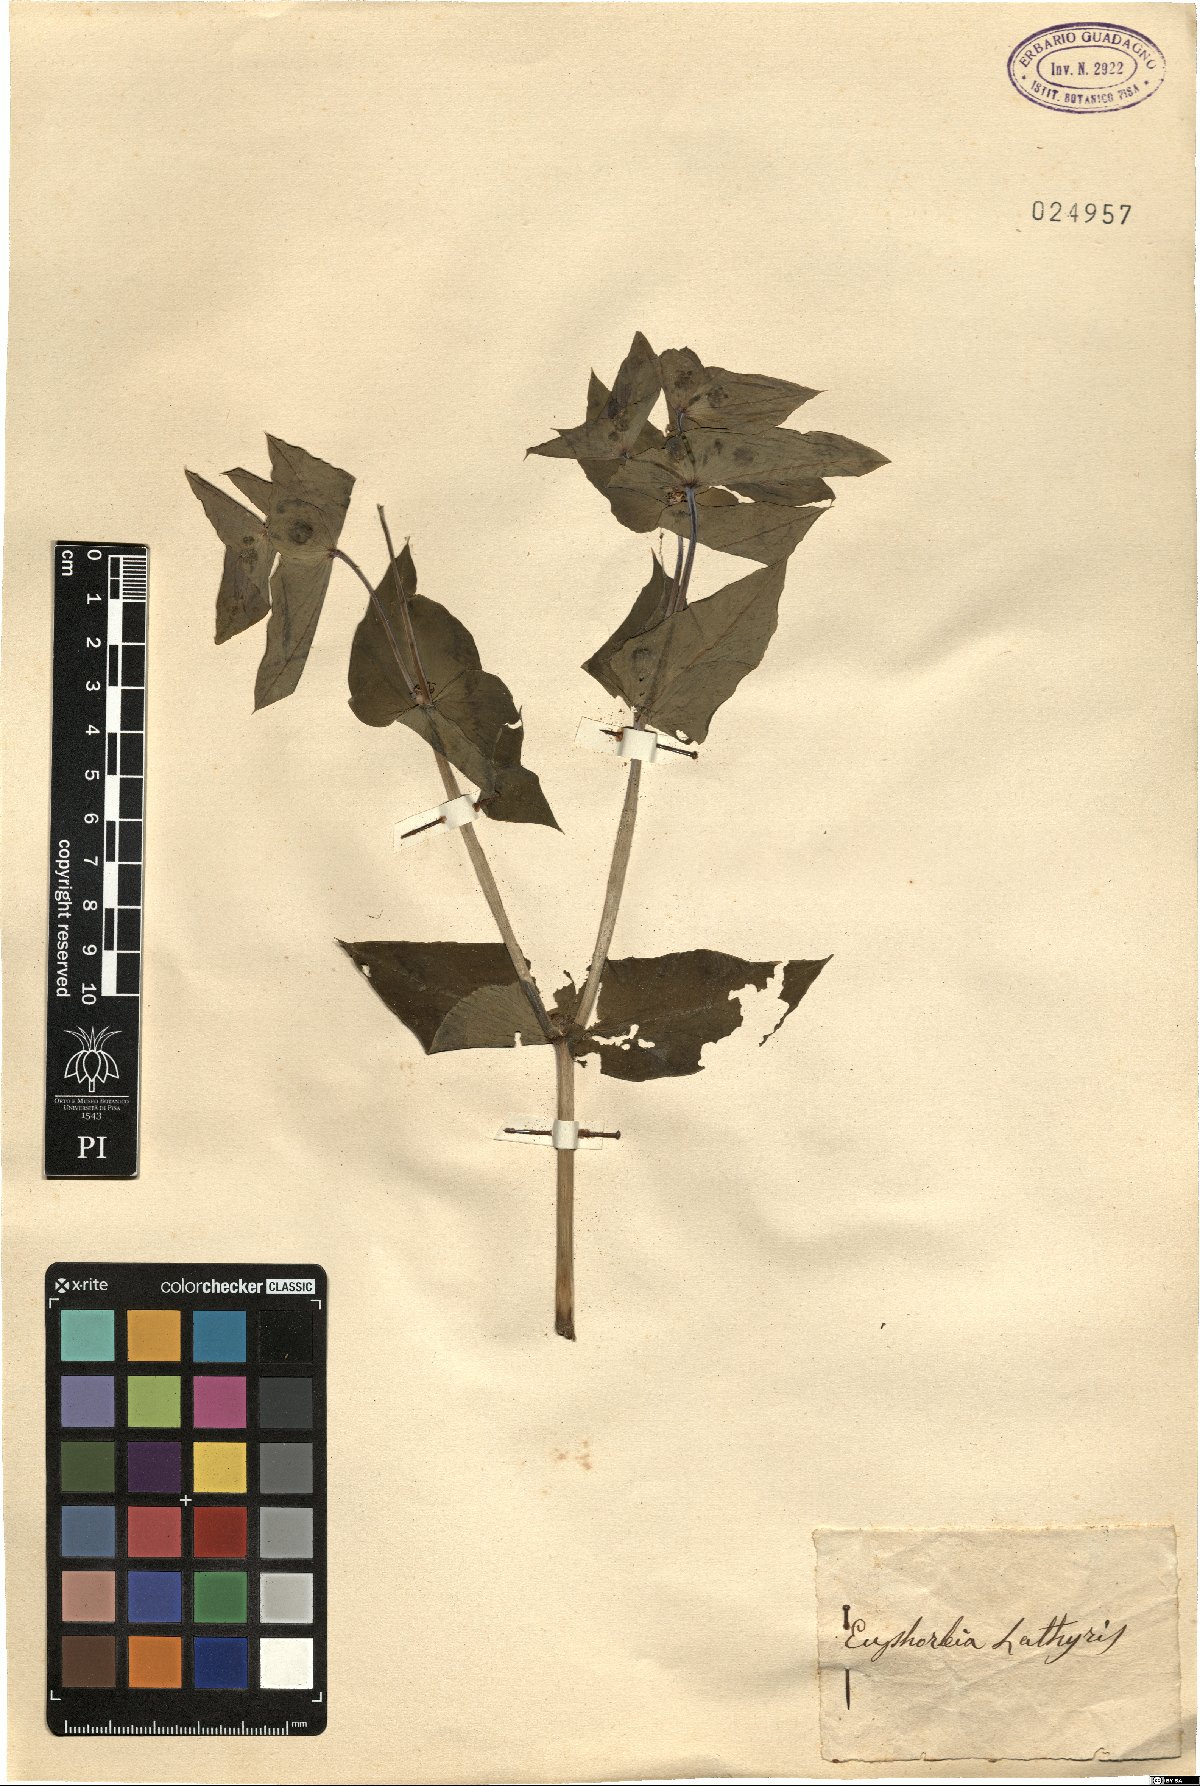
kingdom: Plantae
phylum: Tracheophyta
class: Magnoliopsida
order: Malpighiales
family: Euphorbiaceae
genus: Euphorbia
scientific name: Euphorbia lathyris
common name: Caper spurge
